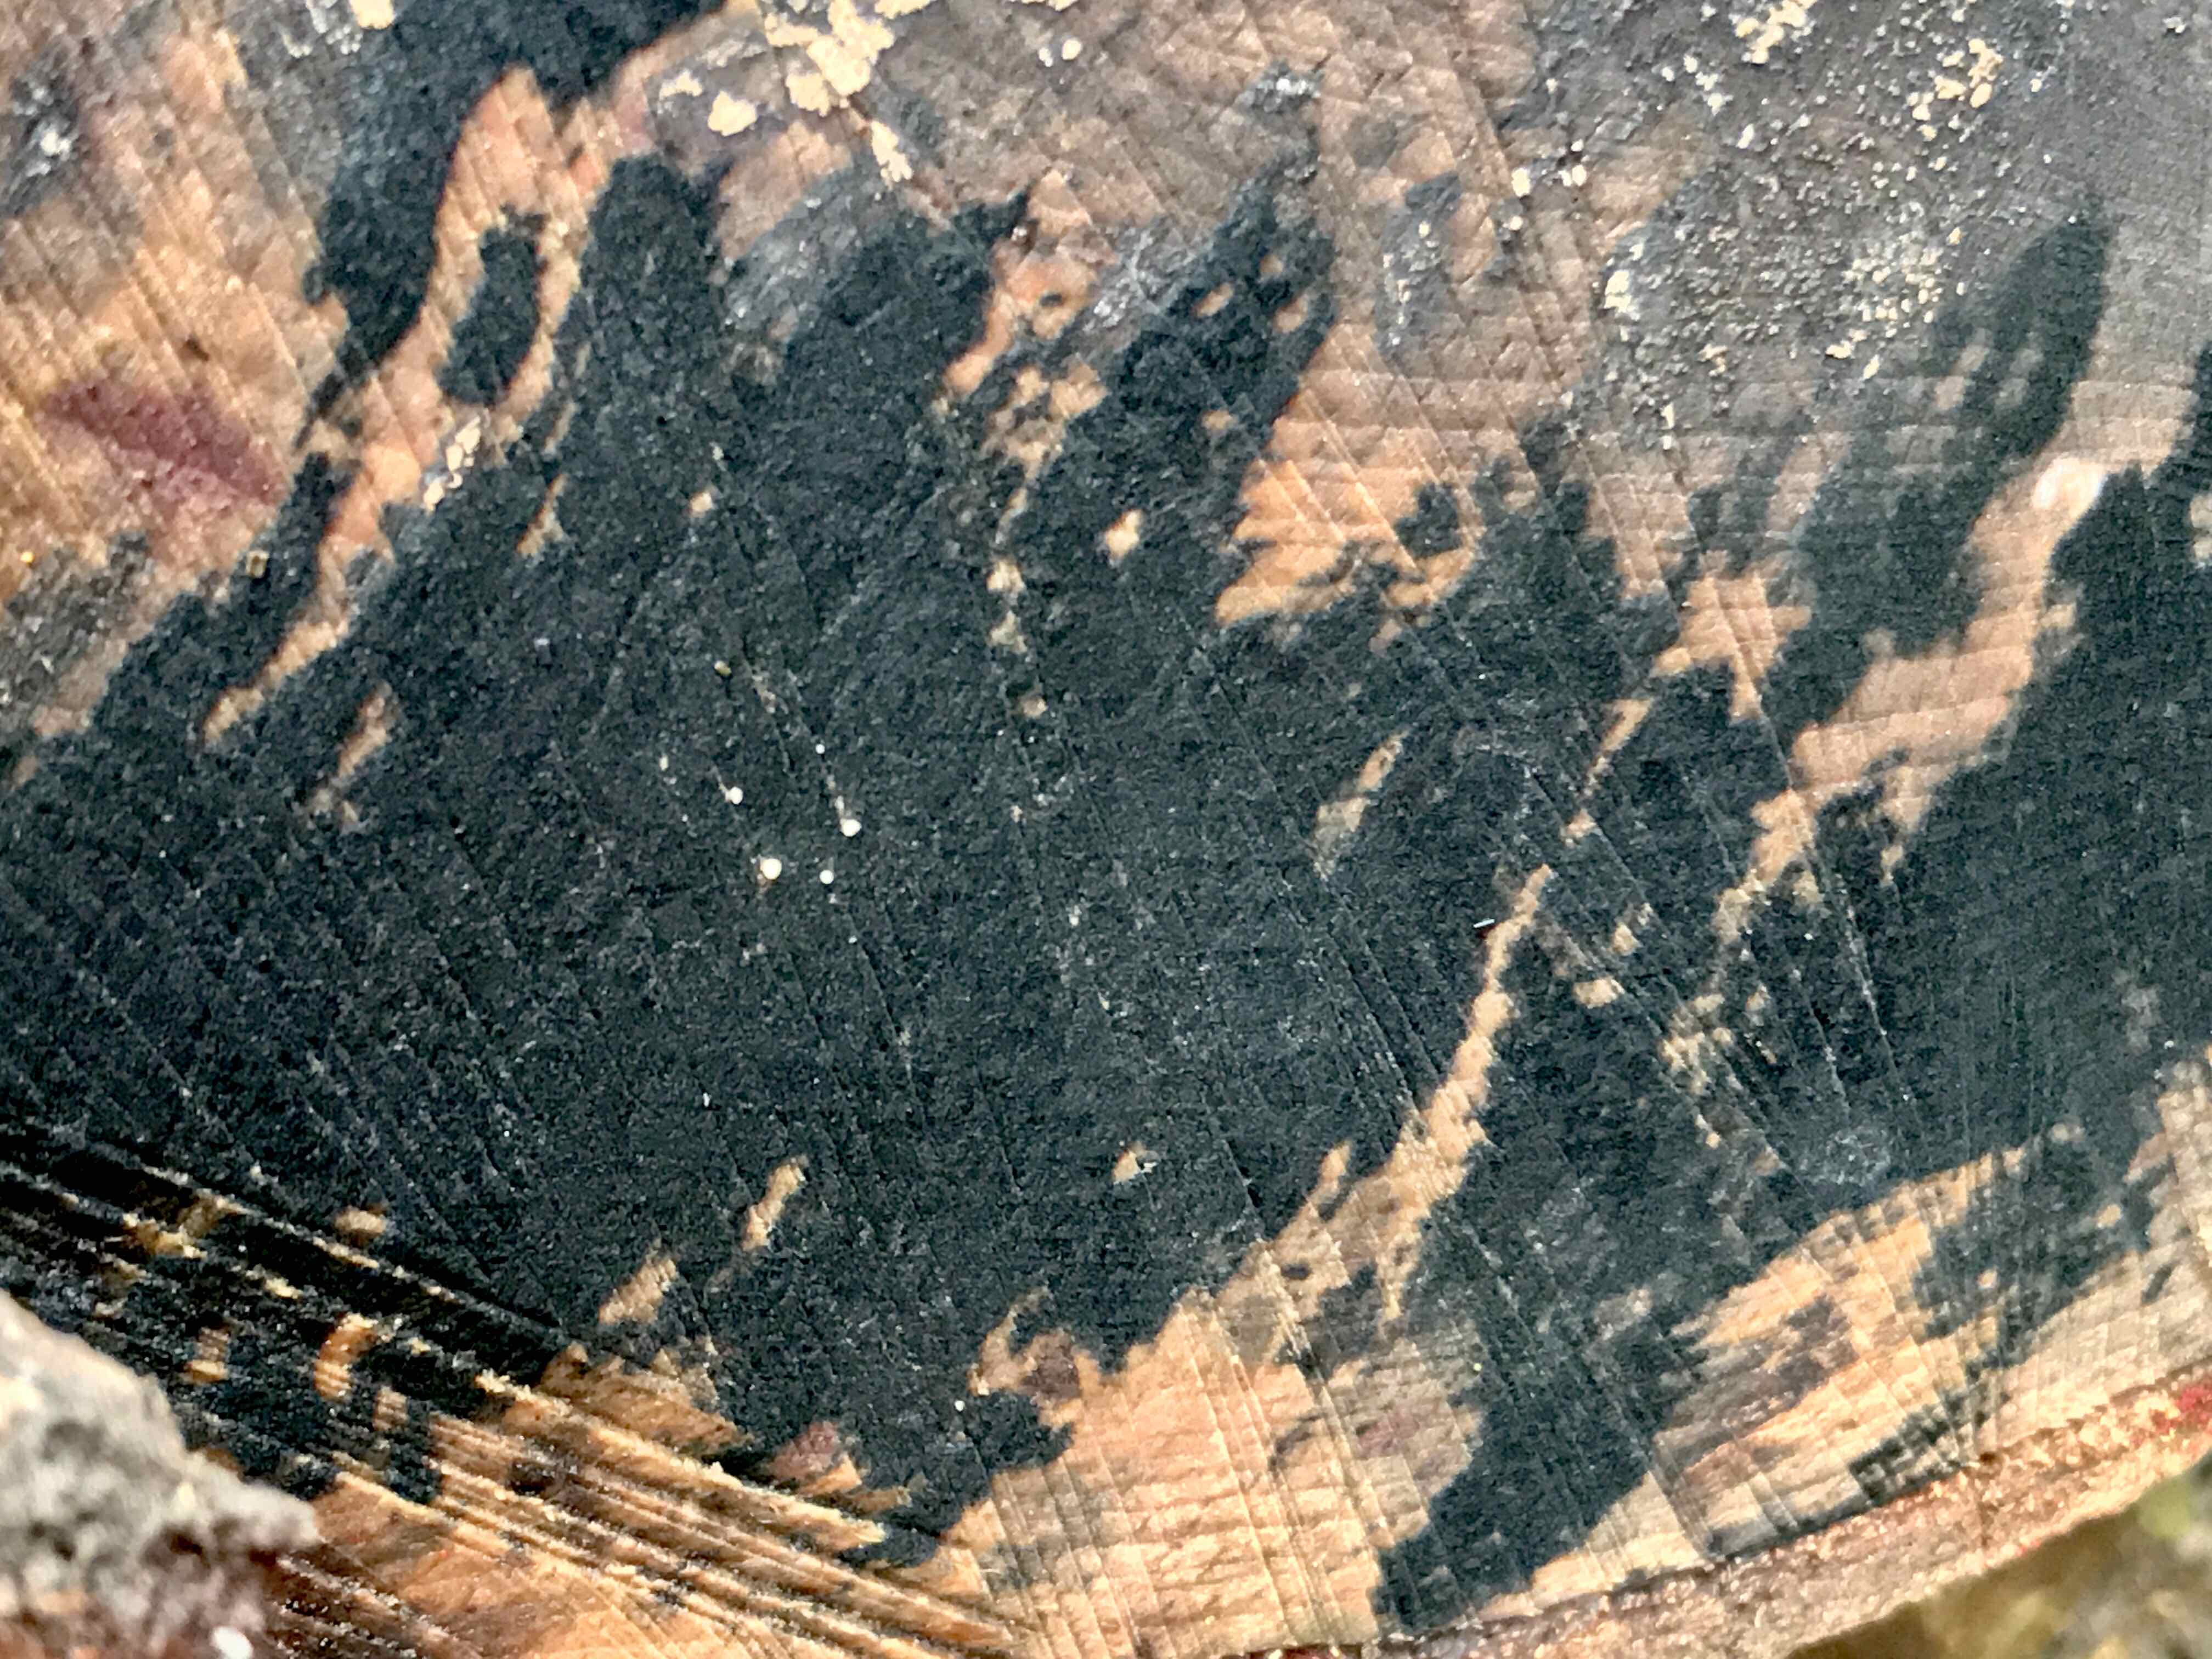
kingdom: Fungi
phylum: Ascomycota
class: Leotiomycetes
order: Helotiales
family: Helotiaceae
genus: Bispora
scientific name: Bispora pallescens
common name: måtte-snitskive
